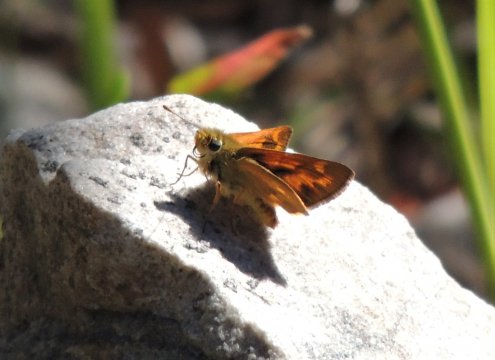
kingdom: Animalia
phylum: Arthropoda
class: Insecta
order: Lepidoptera
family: Hesperiidae
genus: Ochlodes
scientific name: Ochlodes sylvanoides
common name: Woodland Skipper
